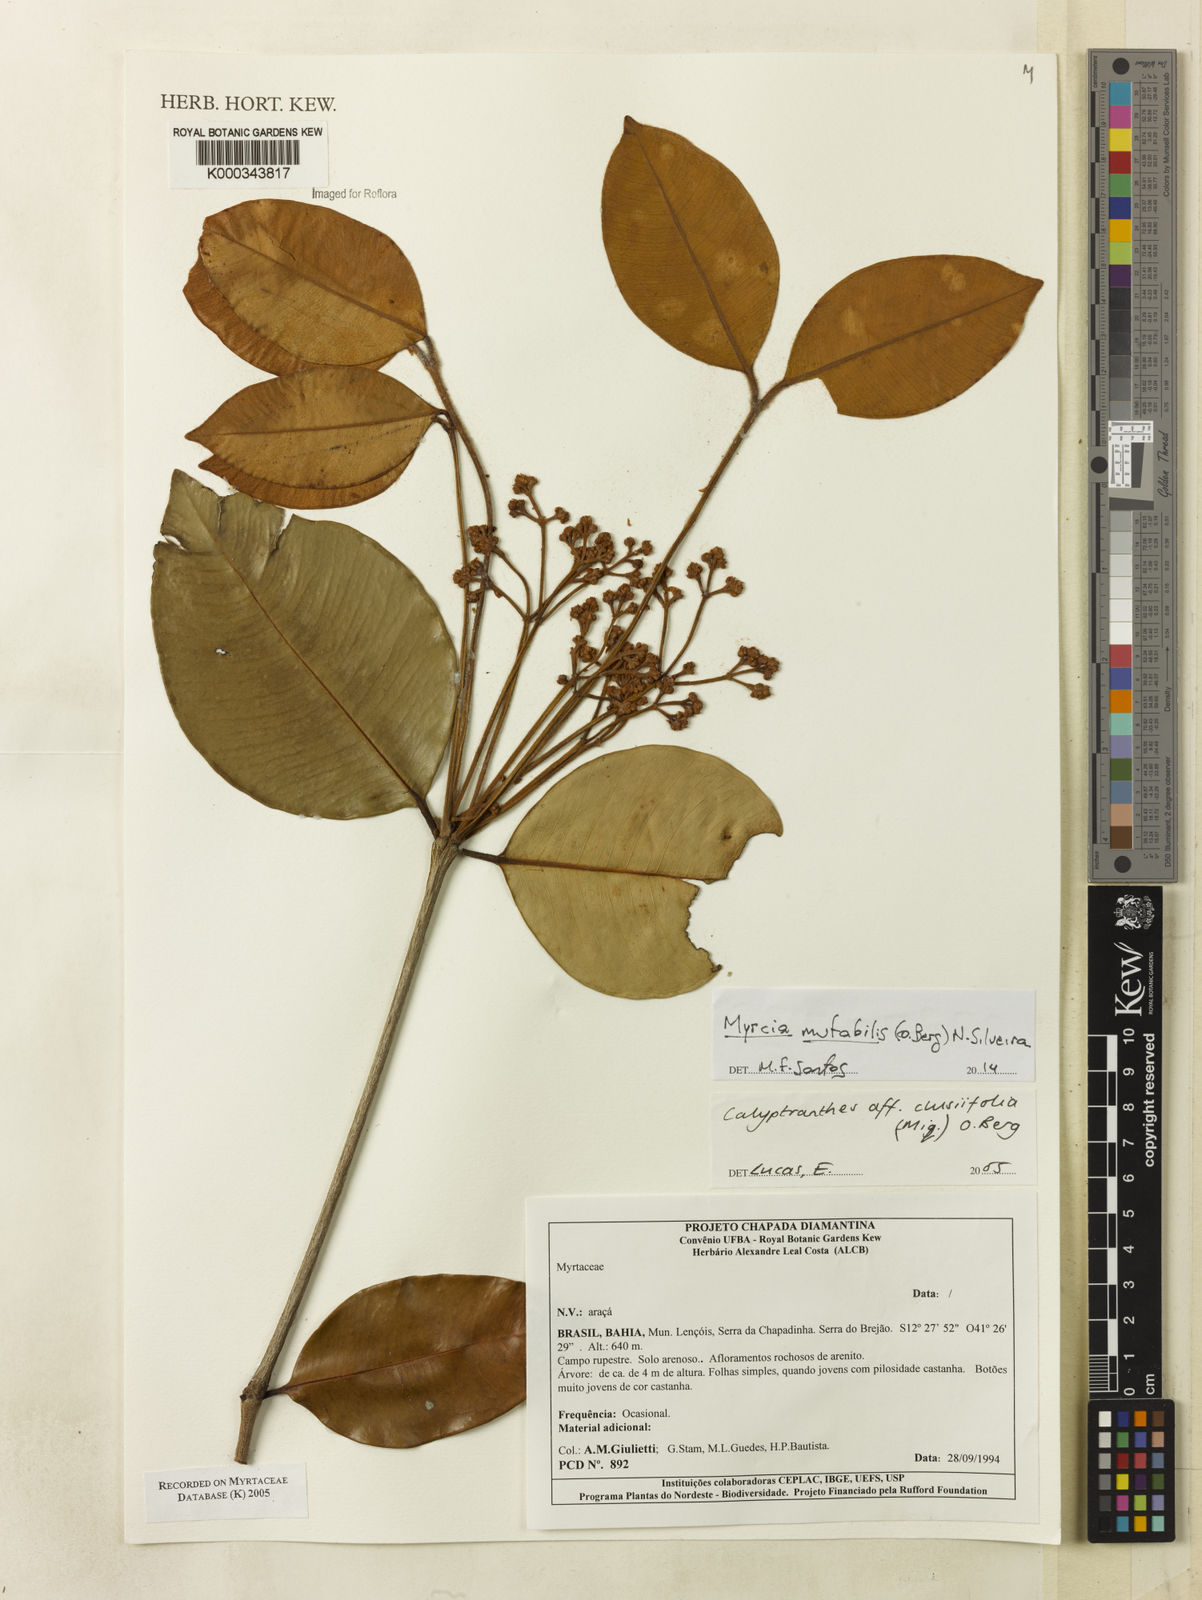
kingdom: Plantae
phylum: Tracheophyta
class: Magnoliopsida
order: Myrtales
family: Myrtaceae
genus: Calyptranthes
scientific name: Calyptranthes
